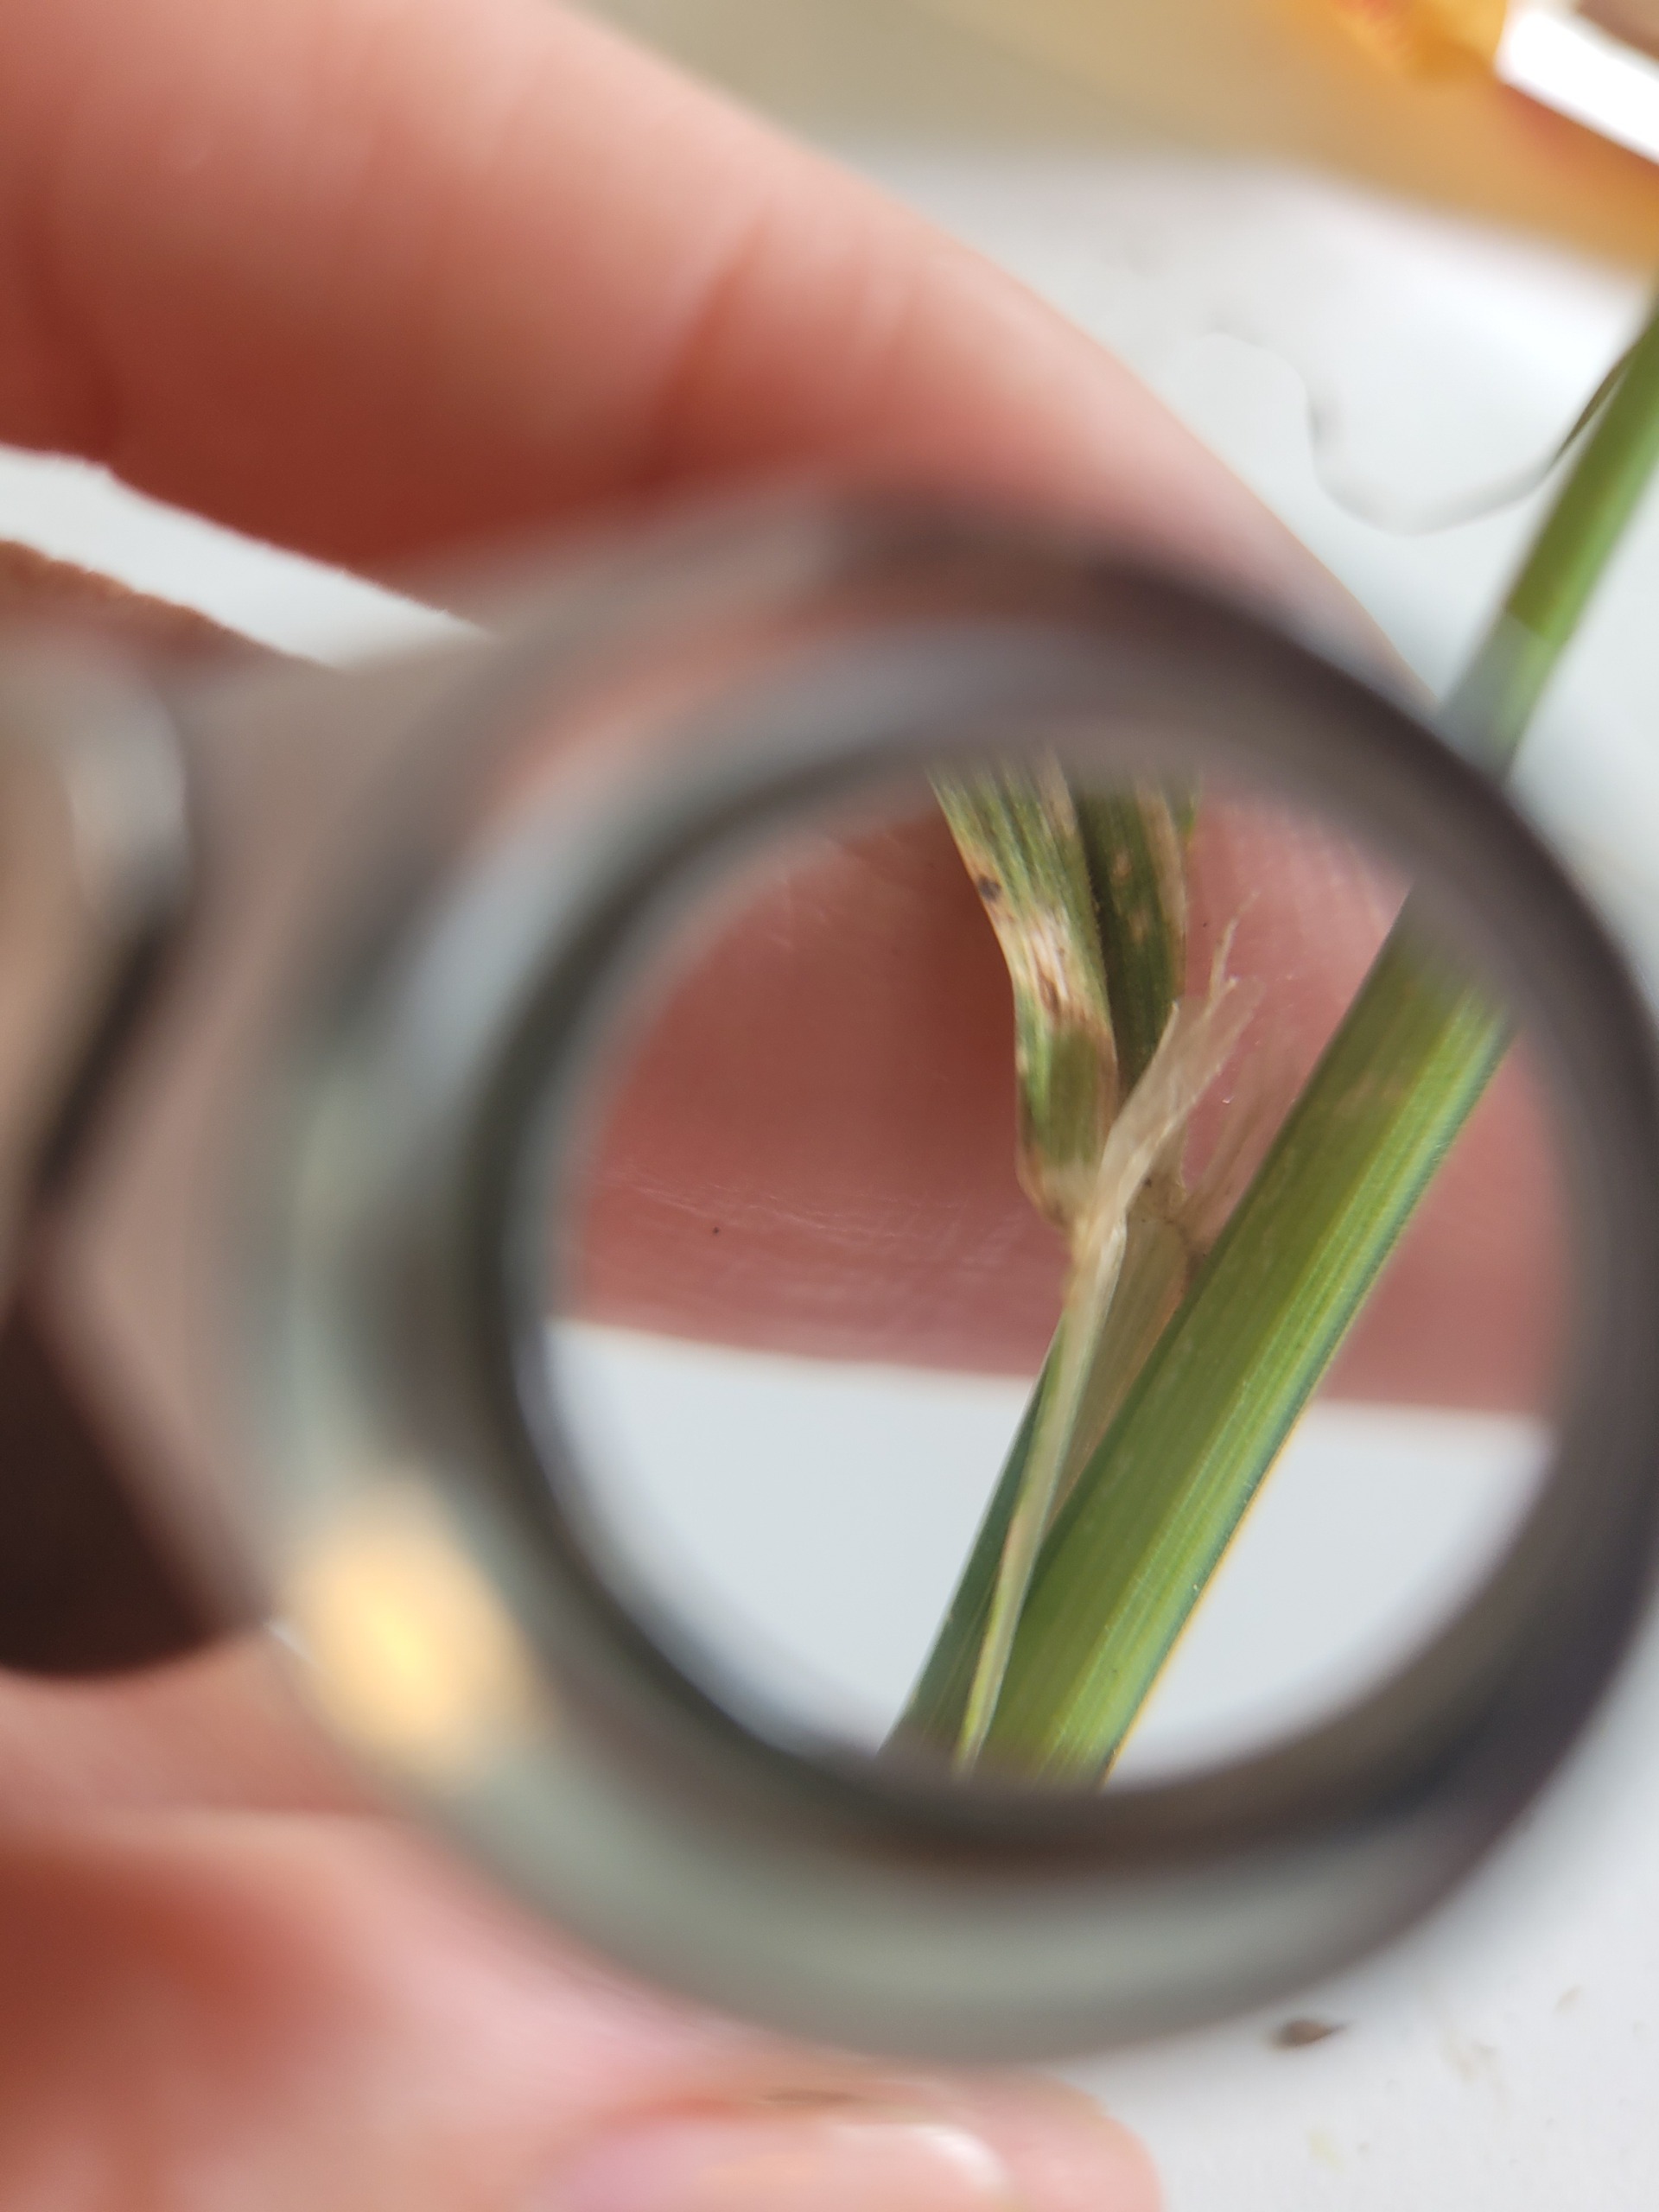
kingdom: Plantae
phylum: Tracheophyta
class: Liliopsida
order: Poales
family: Poaceae
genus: Dactylis
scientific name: Dactylis glomerata
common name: Almindelig hundegræs
